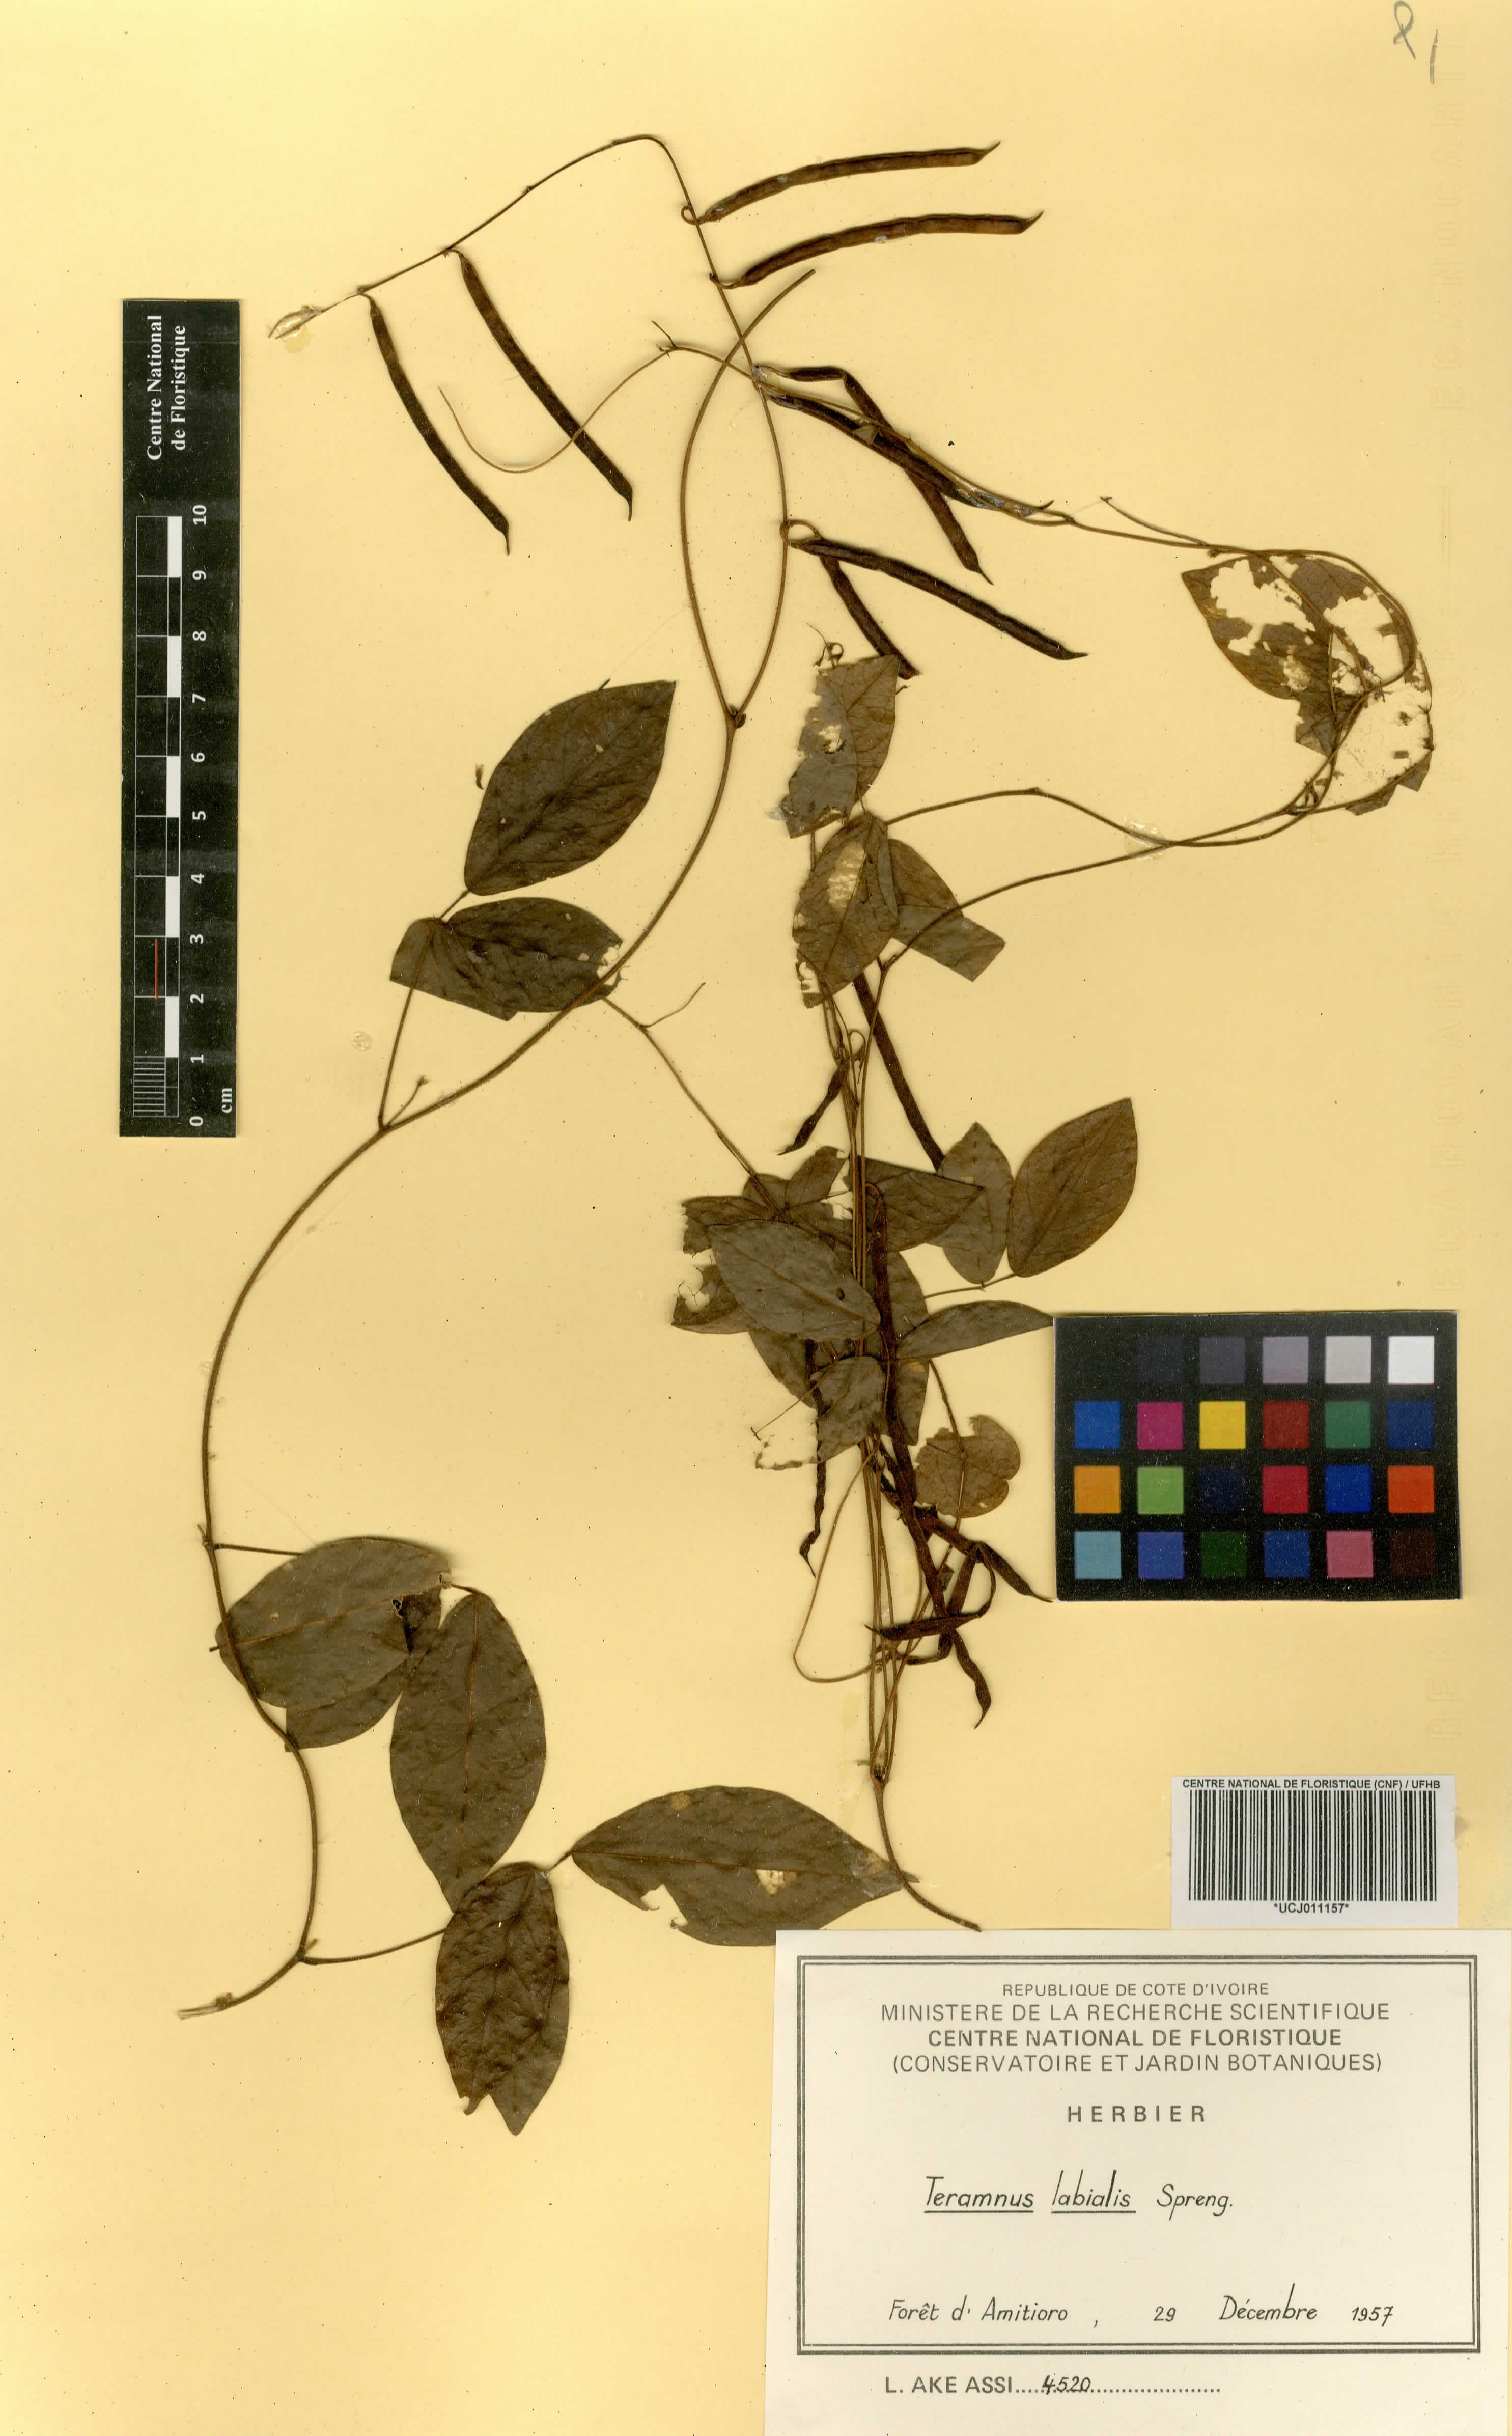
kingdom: Plantae
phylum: Tracheophyta
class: Magnoliopsida
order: Fabales
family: Fabaceae
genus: Teramnus
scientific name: Teramnus labialis
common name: Blue wiss
